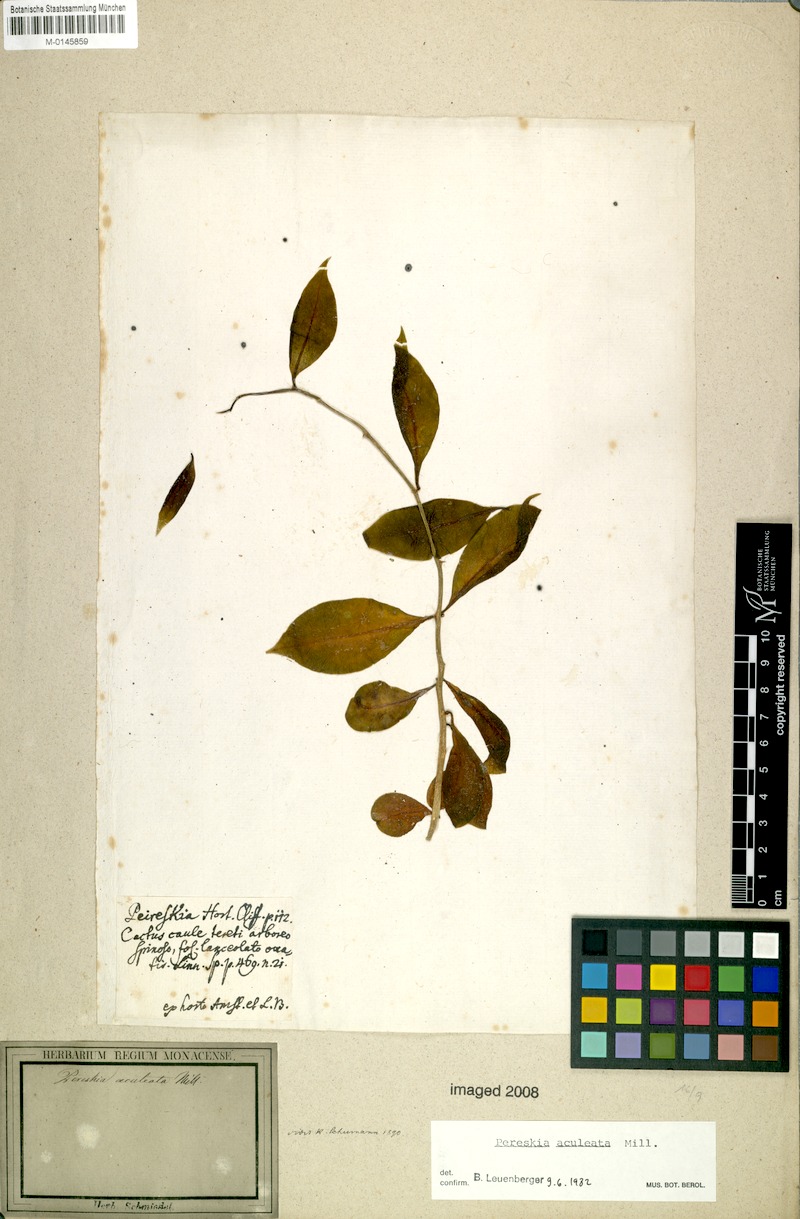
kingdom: Plantae
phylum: Tracheophyta
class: Magnoliopsida
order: Caryophyllales
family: Cactaceae
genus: Pereskia
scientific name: Pereskia aculeata
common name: Barbados gooseberry
